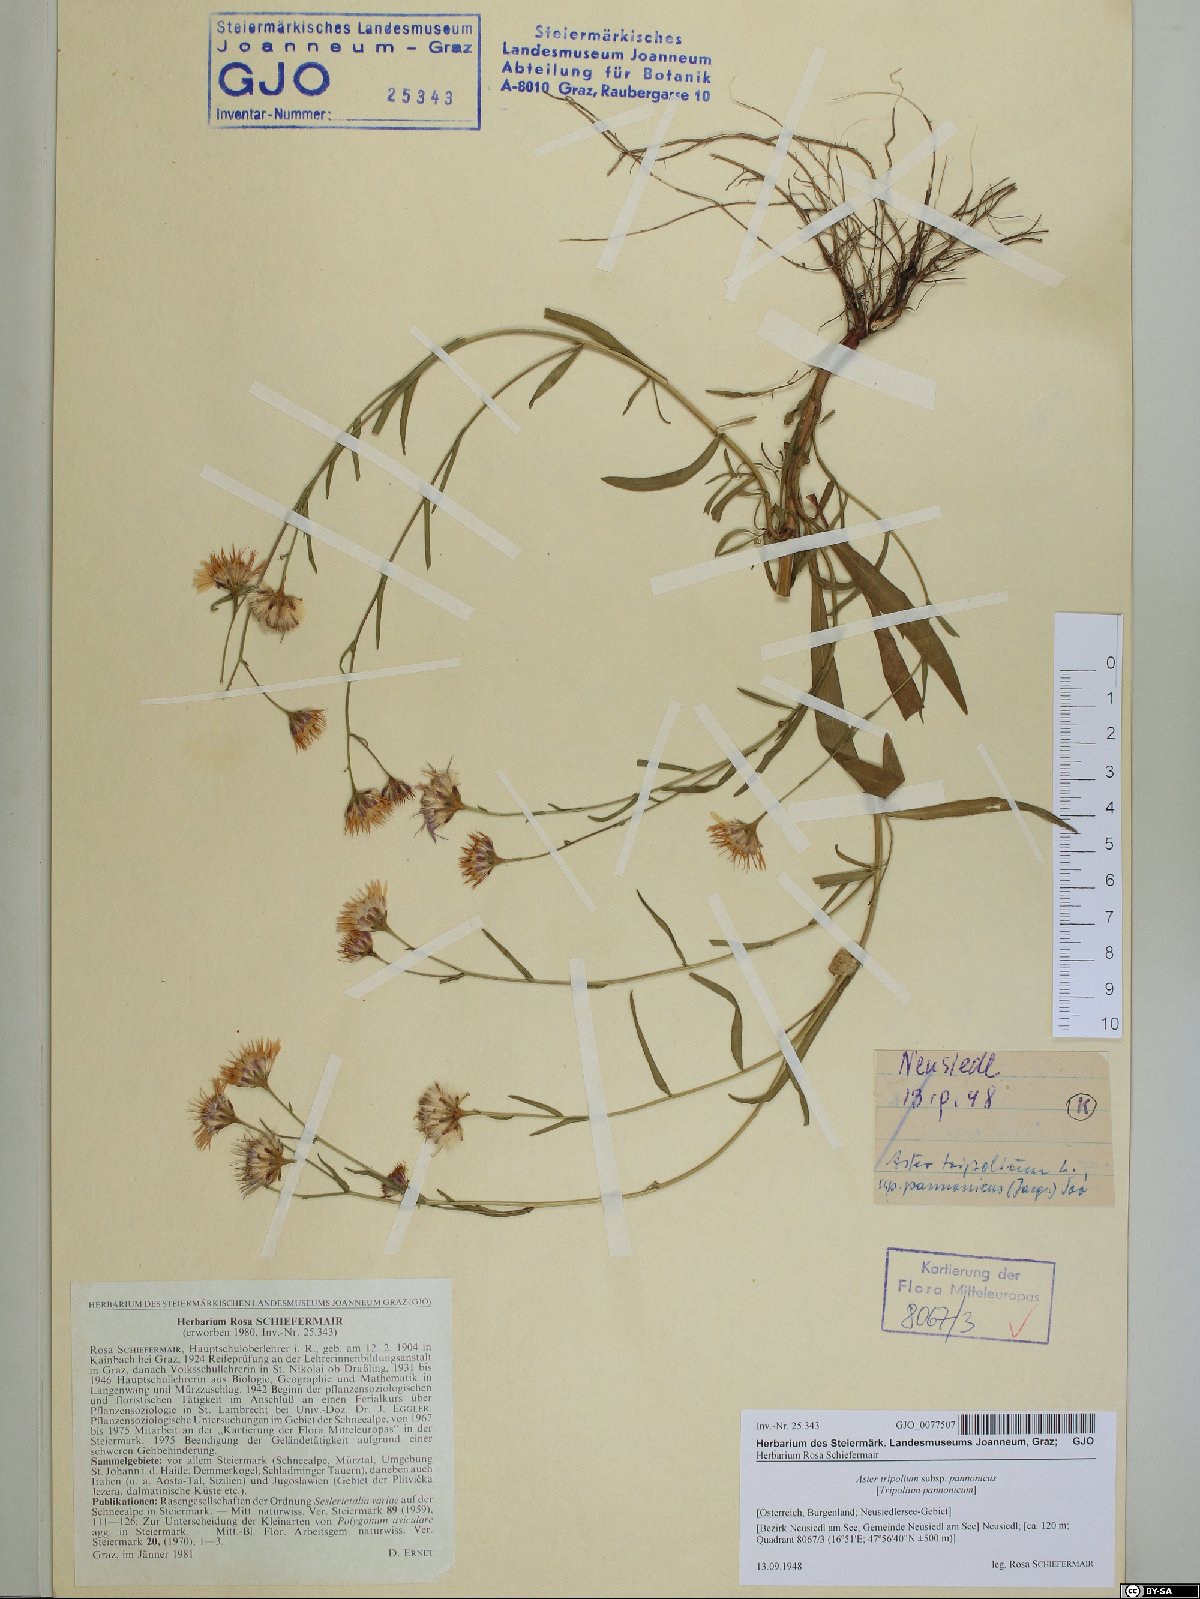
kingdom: Plantae
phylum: Tracheophyta
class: Magnoliopsida
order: Asterales
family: Asteraceae
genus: Tripolium
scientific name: Tripolium pannonicum
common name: Sea aster
